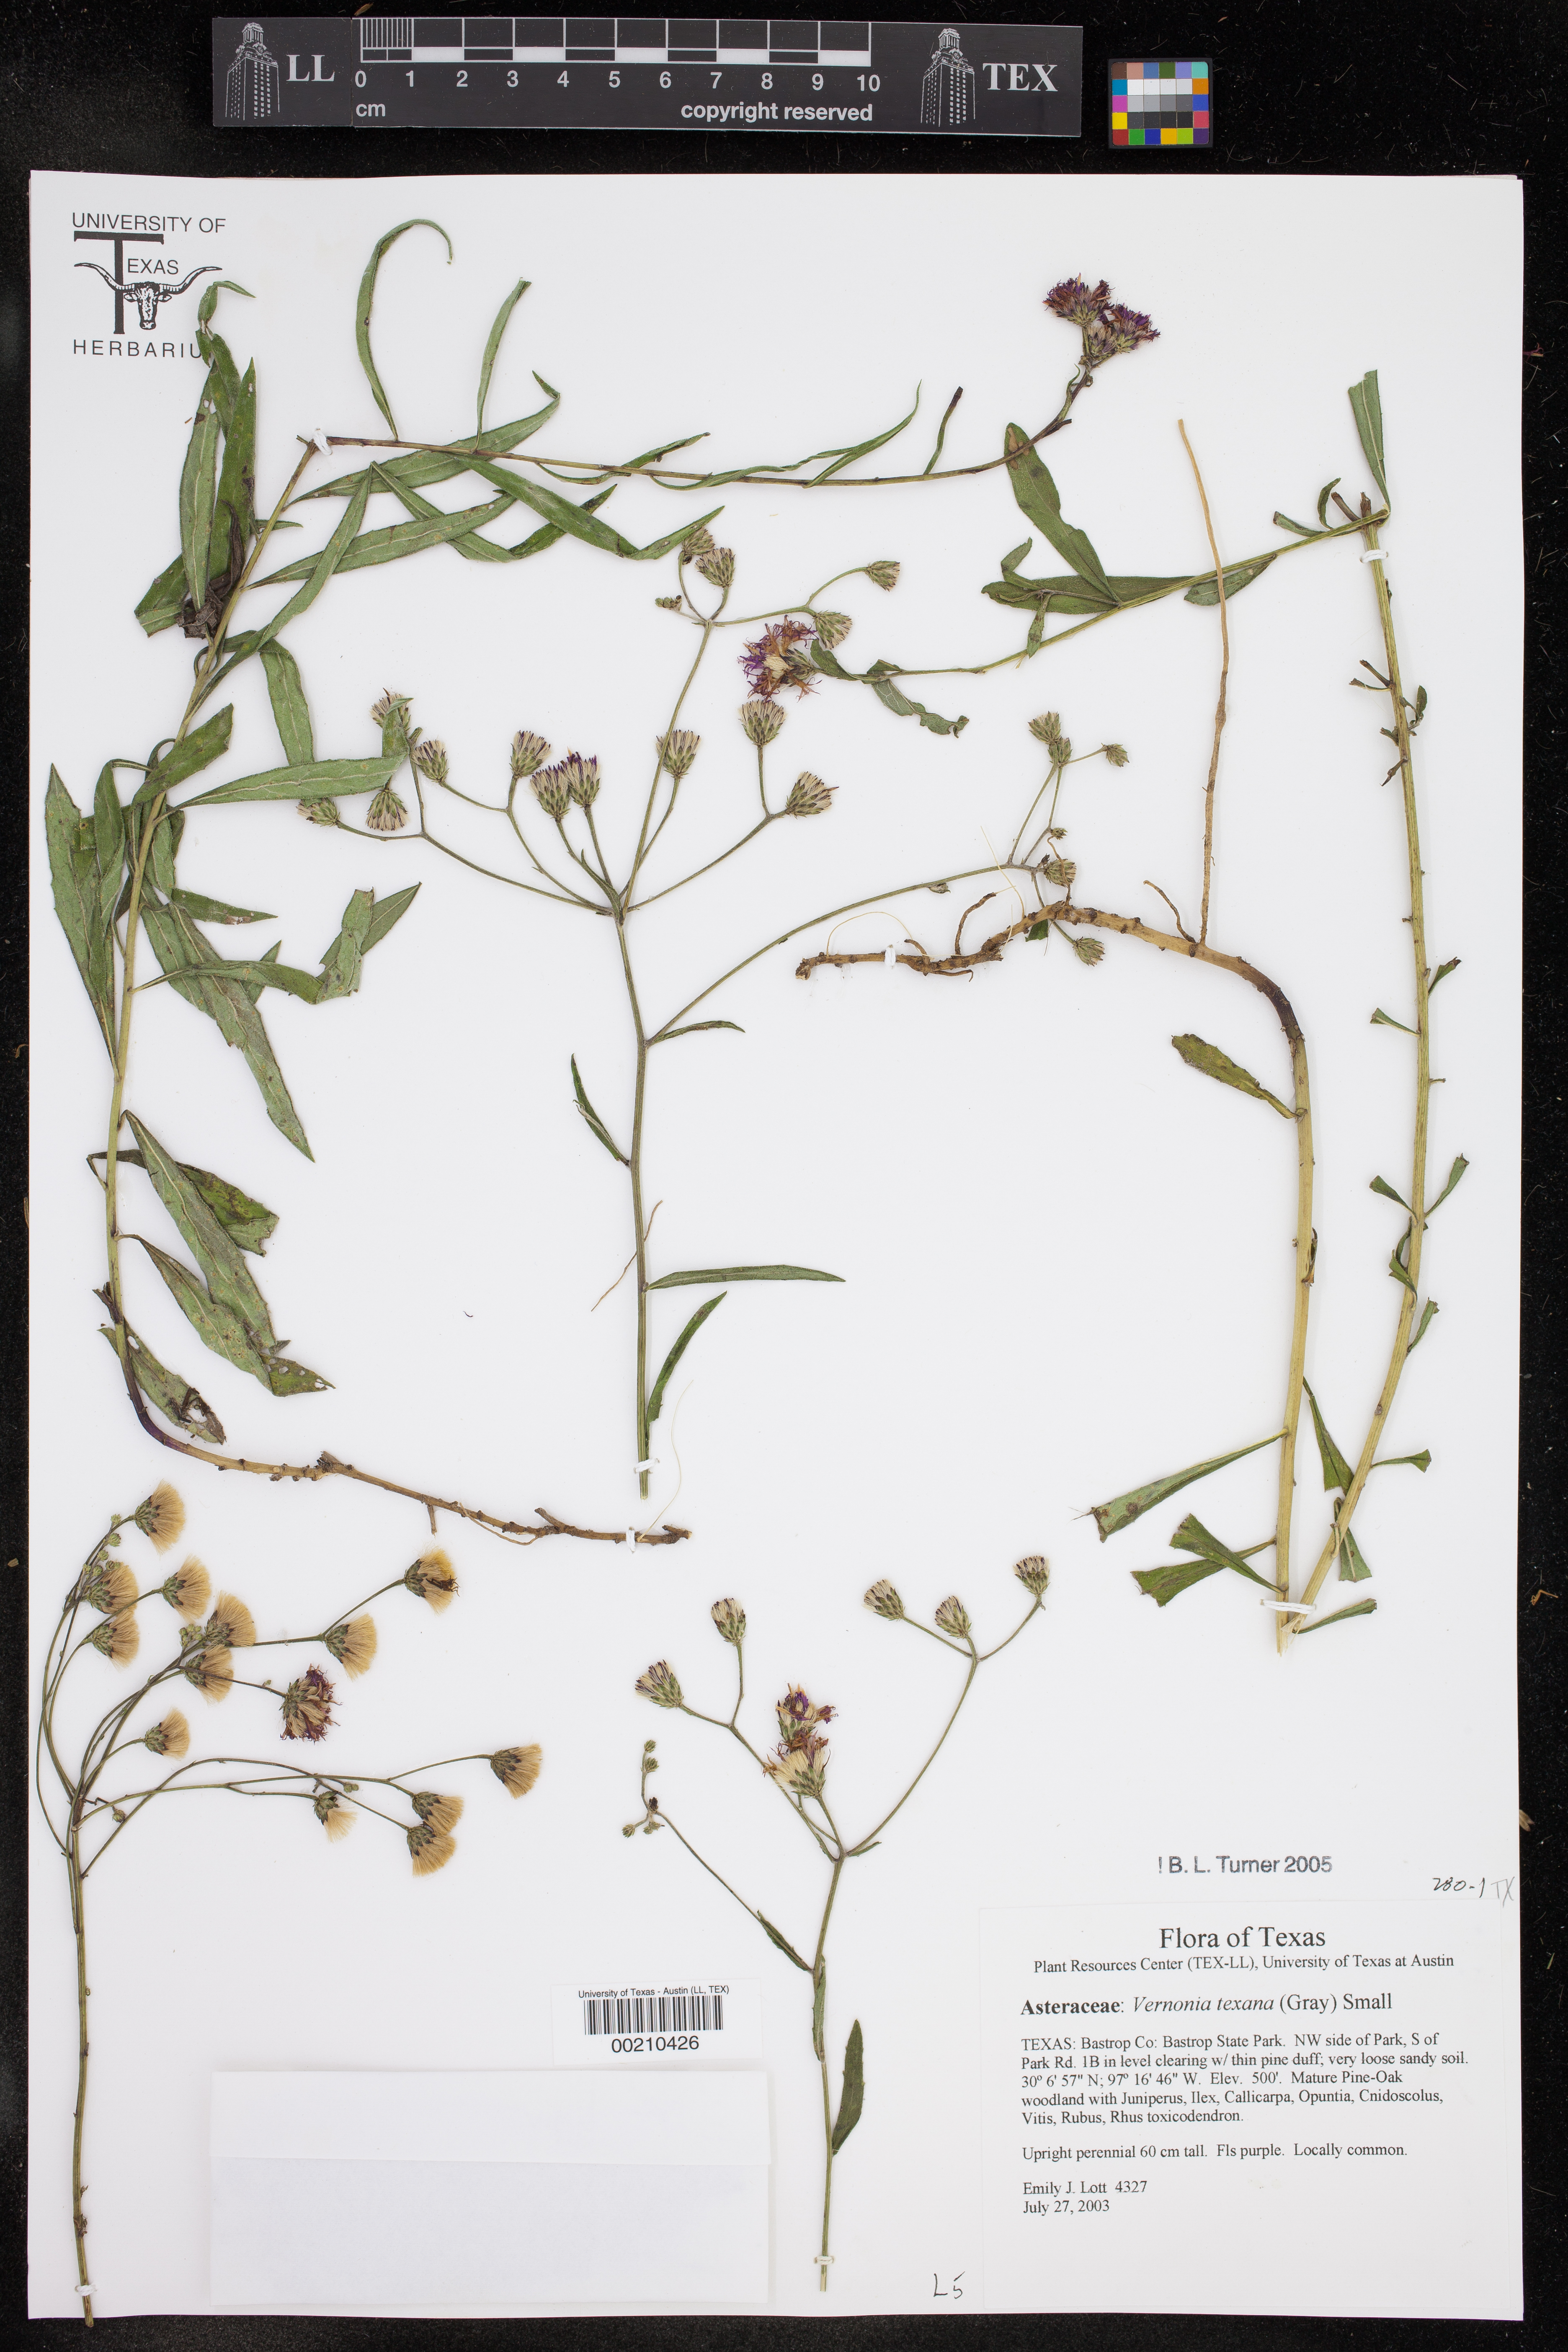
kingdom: Plantae
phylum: Tracheophyta
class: Magnoliopsida
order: Asterales
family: Asteraceae
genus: Vernonia
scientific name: Vernonia texana
